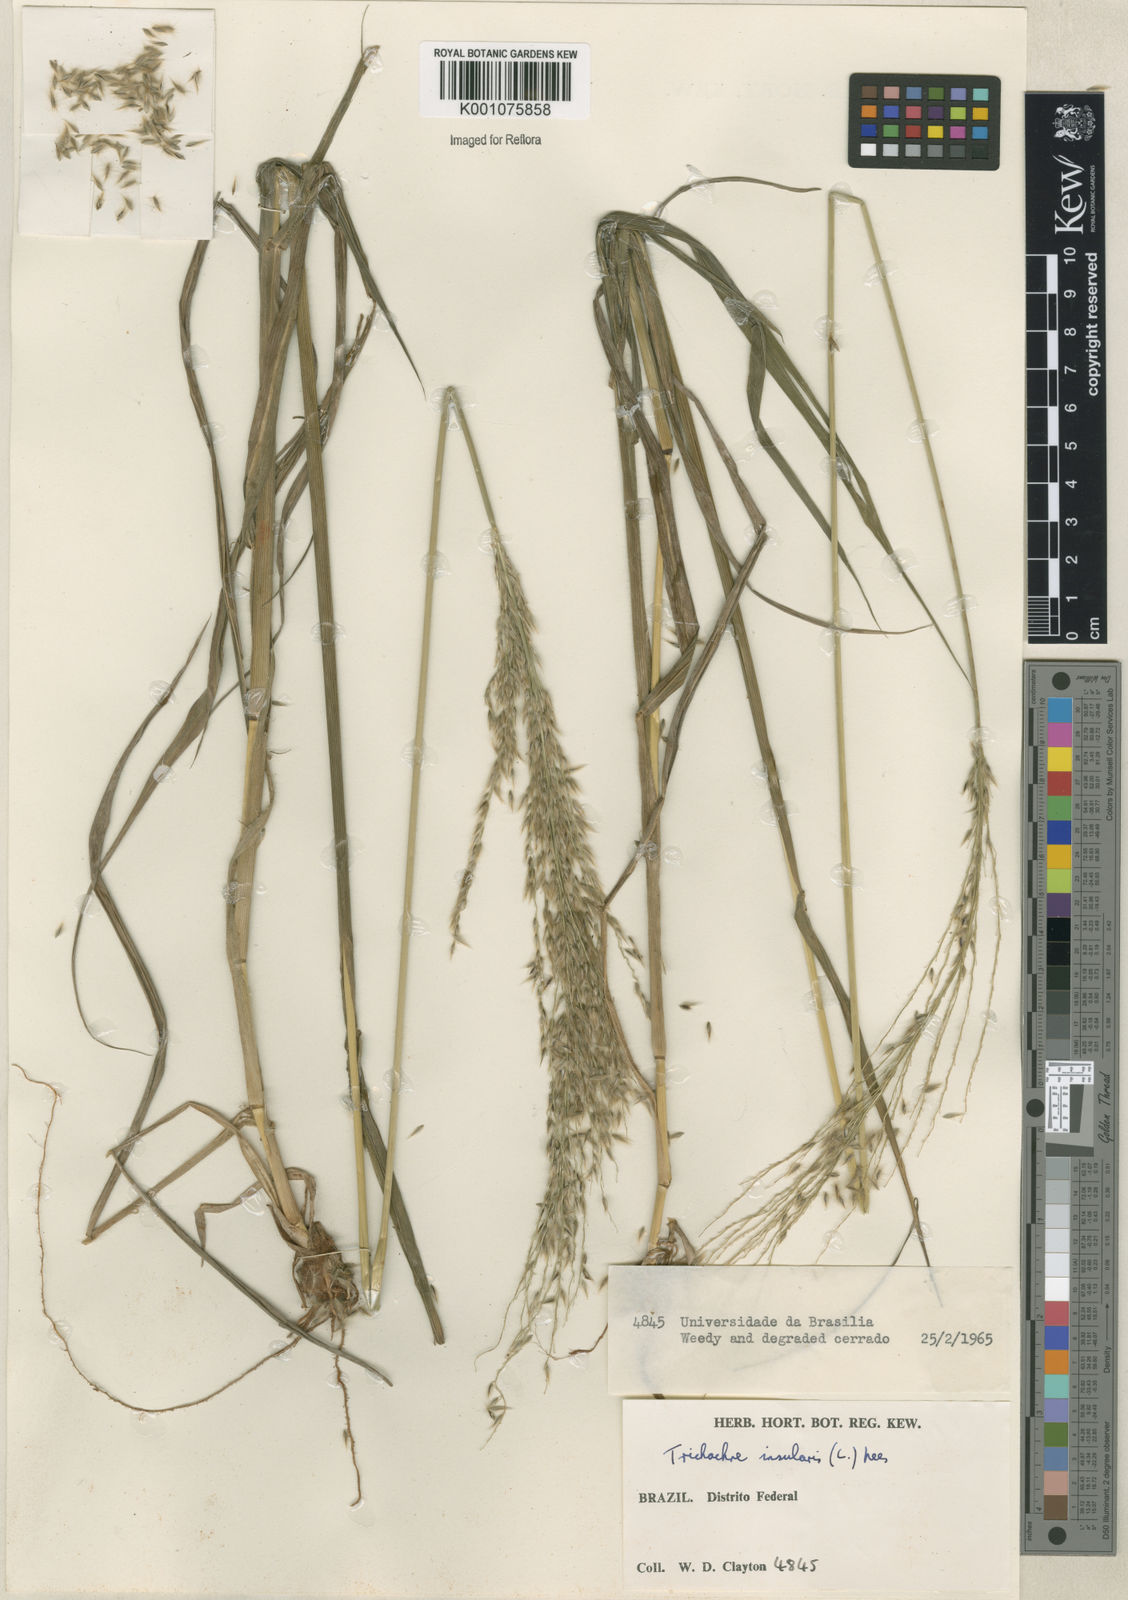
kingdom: Plantae
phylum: Tracheophyta
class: Liliopsida
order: Poales
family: Poaceae
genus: Digitaria
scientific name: Digitaria
